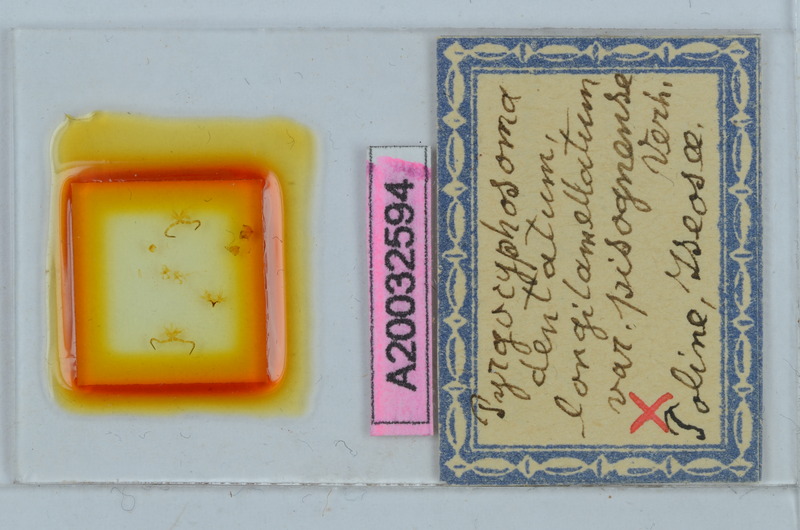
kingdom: Animalia
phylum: Arthropoda
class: Diplopoda
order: Chordeumatida
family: Craspedosomatidae
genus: Pyrgocyphosoma
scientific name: Pyrgocyphosoma longilamellatum
